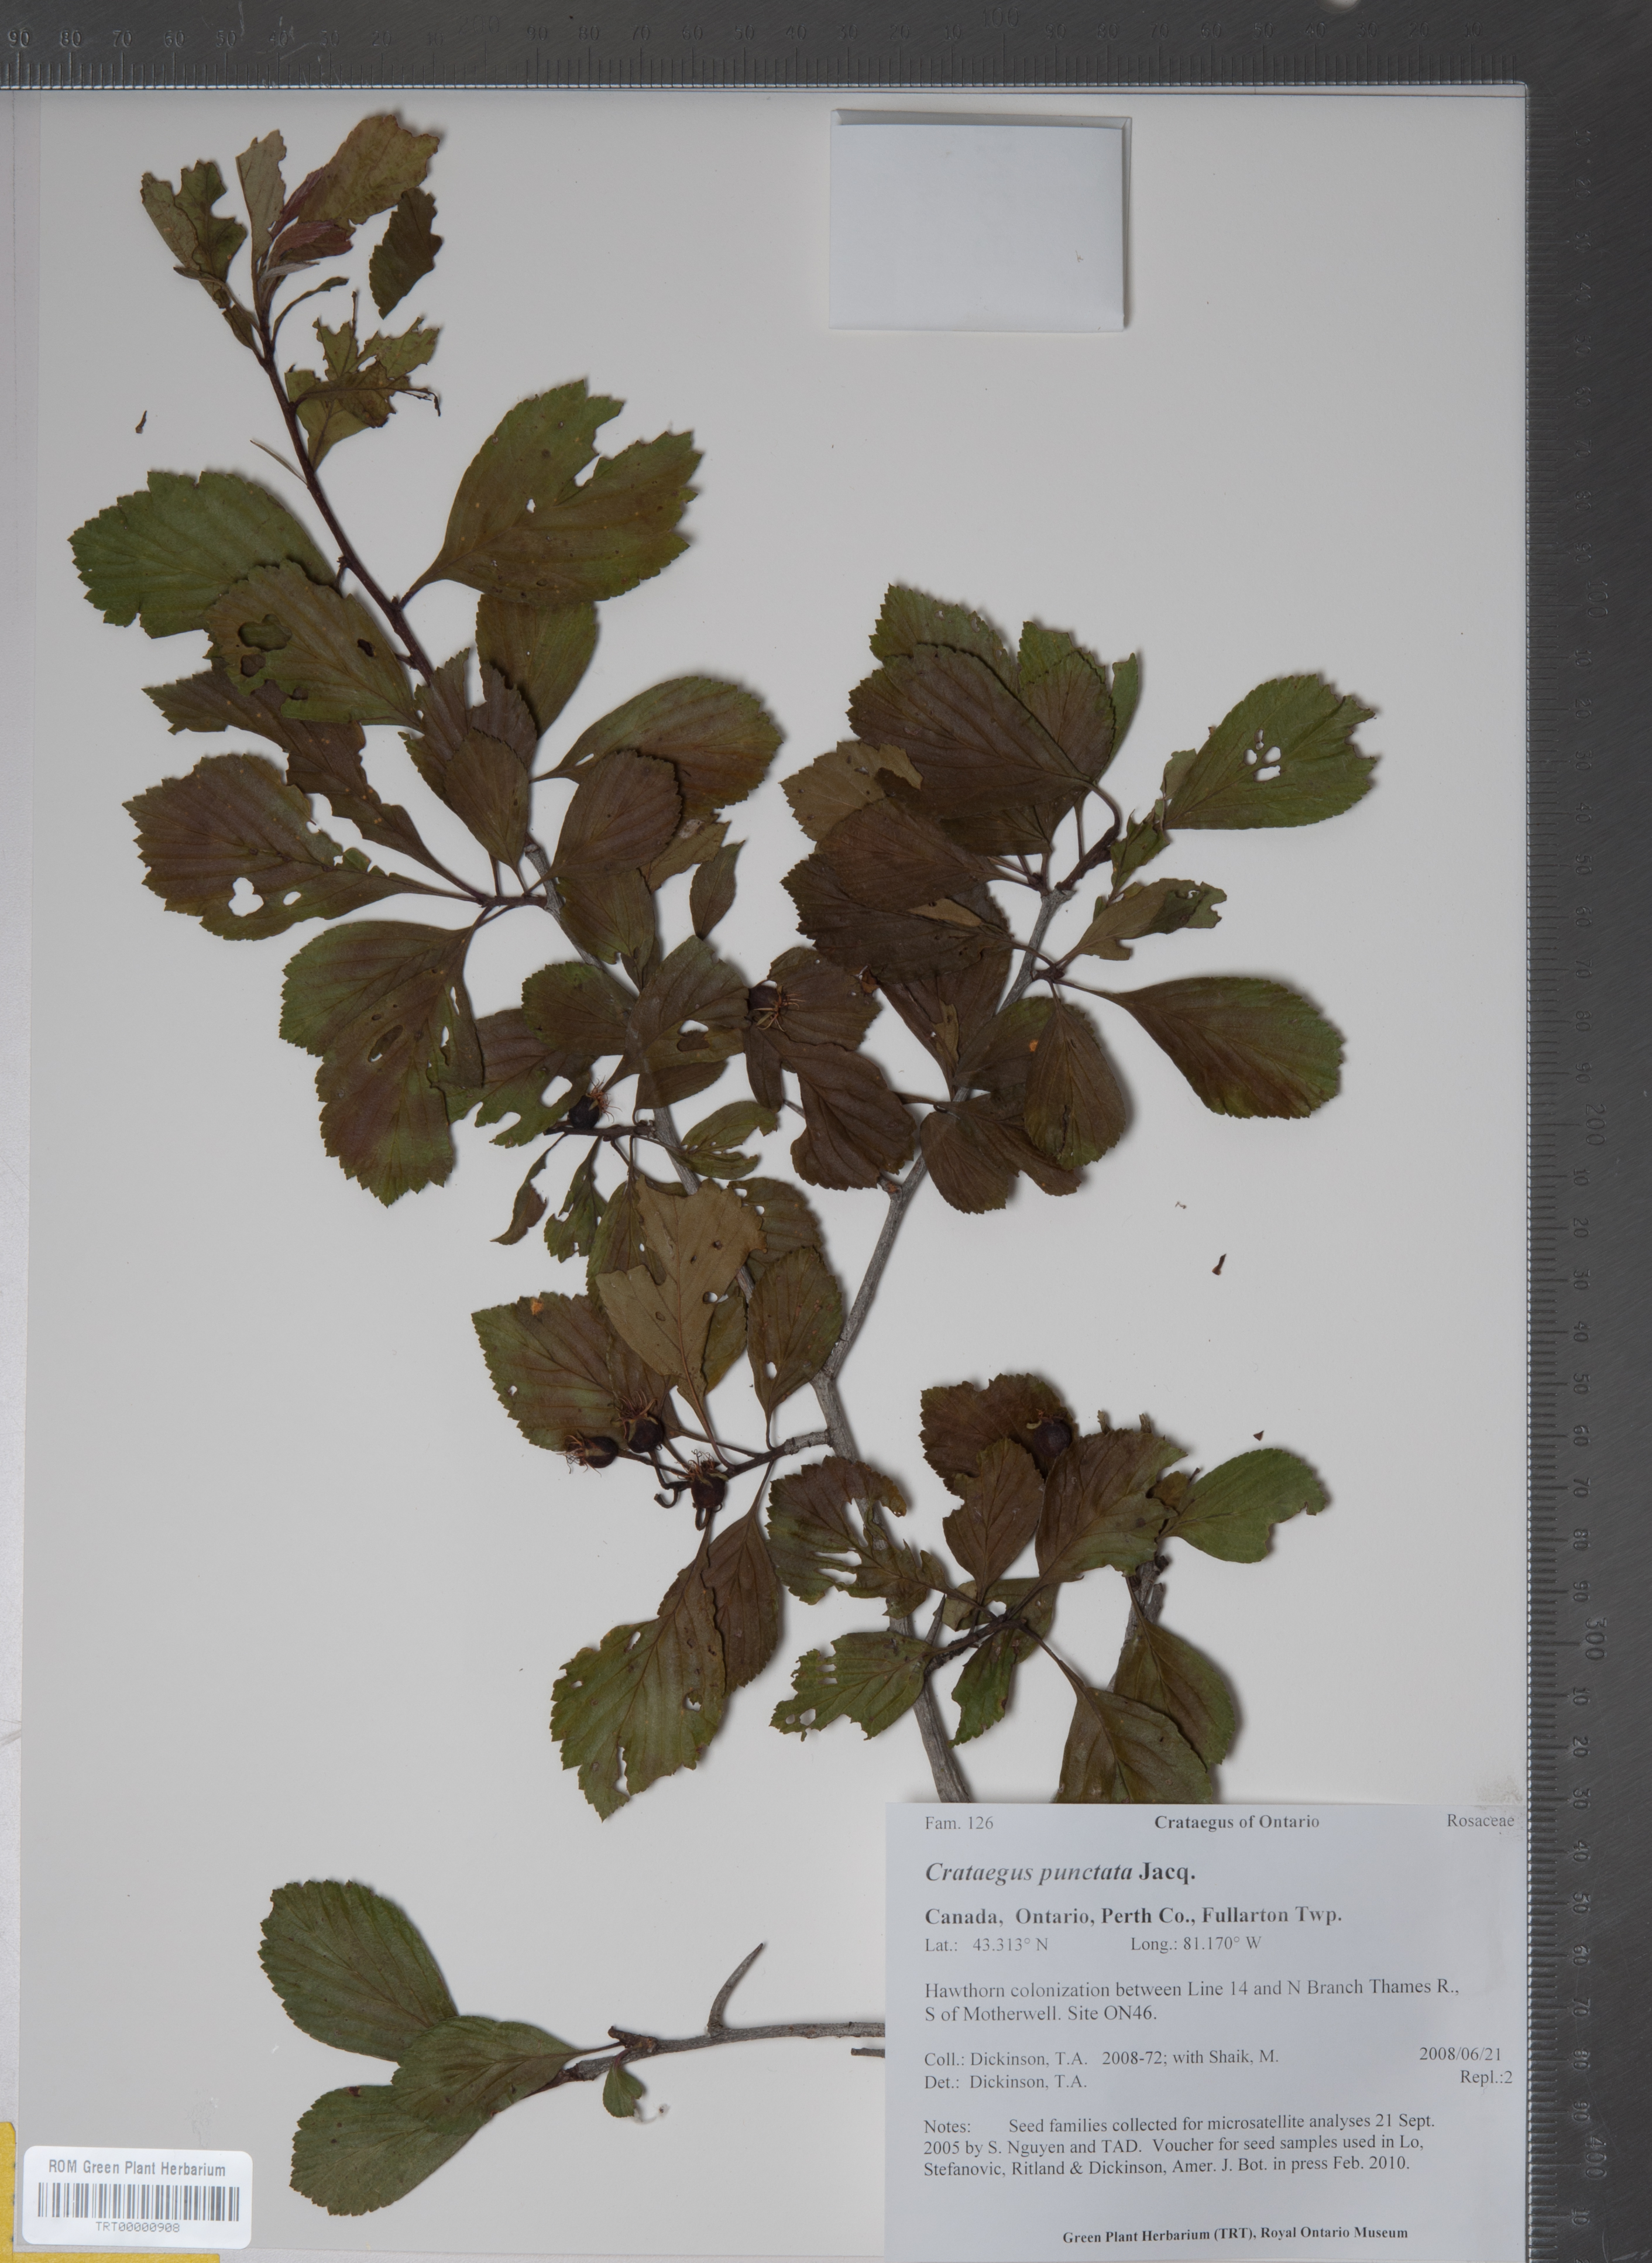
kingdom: Plantae
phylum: Tracheophyta
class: Magnoliopsida
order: Rosales
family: Rosaceae
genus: Crataegus
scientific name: Crataegus punctata
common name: Dotted hawthorn
